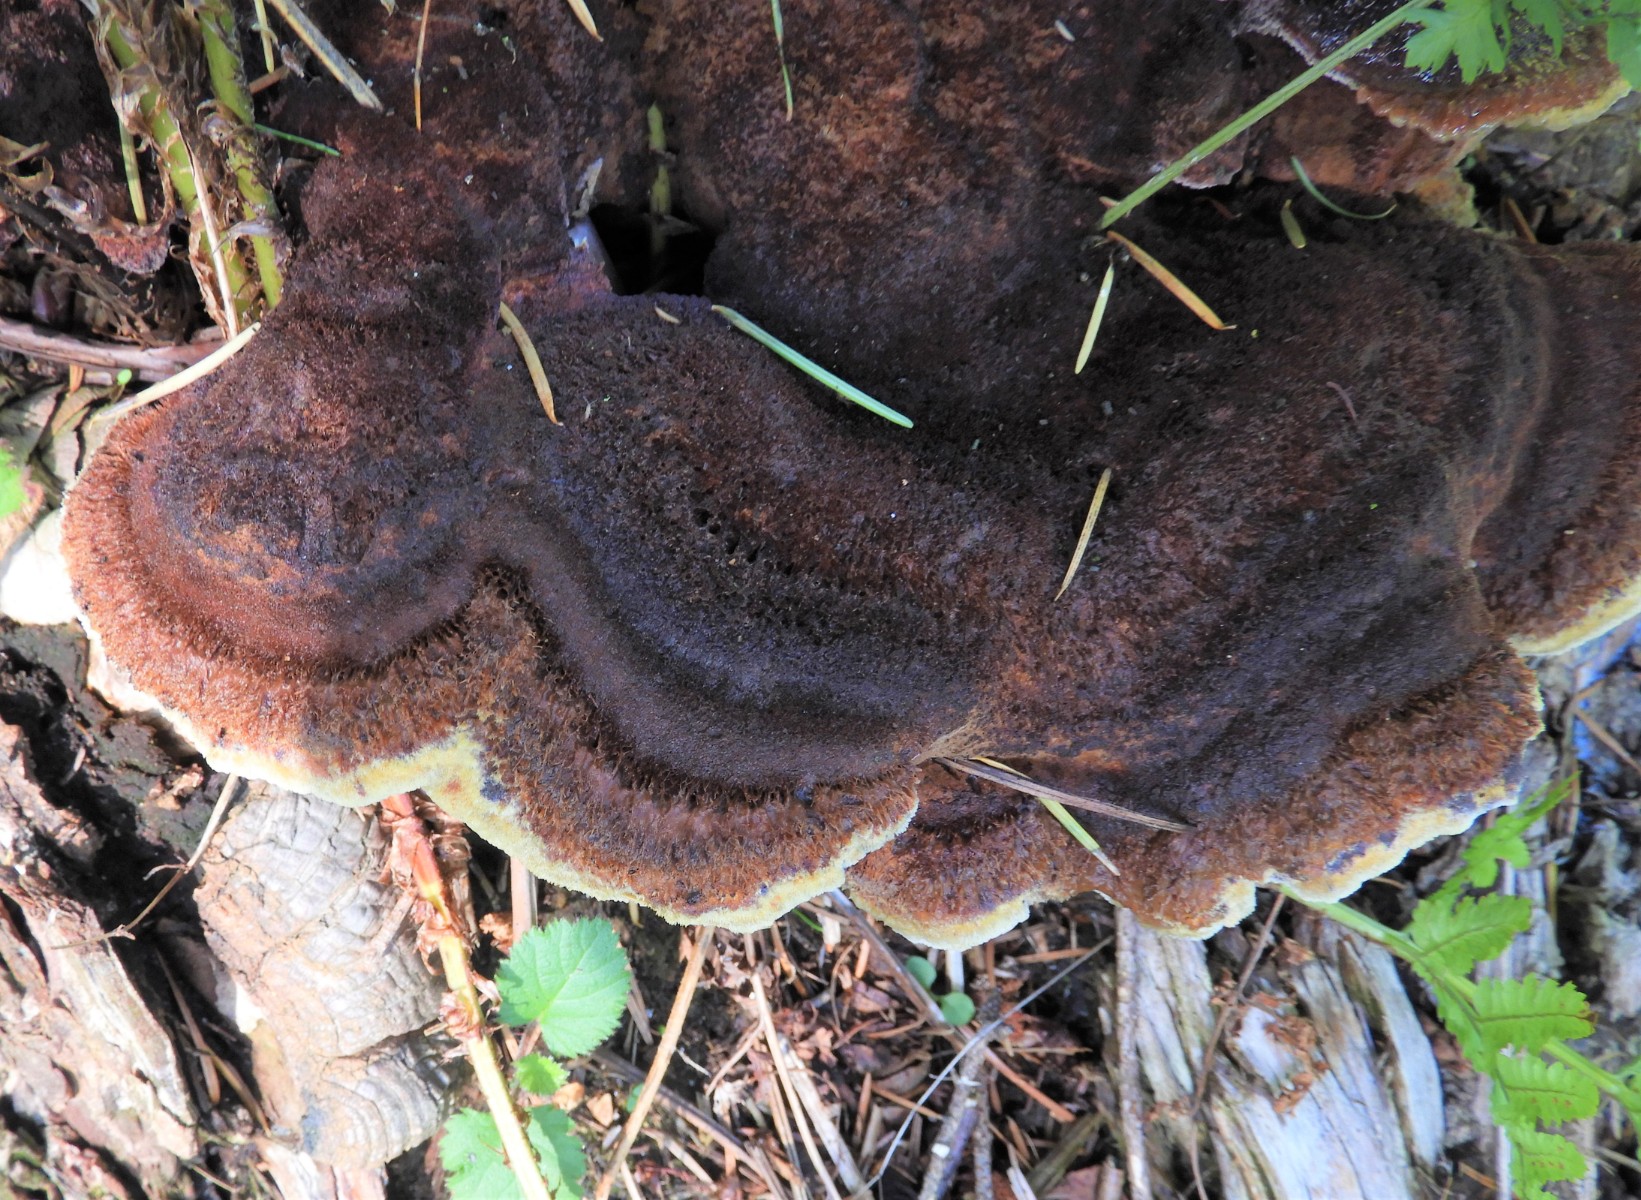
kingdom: Fungi
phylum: Basidiomycota
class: Agaricomycetes
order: Polyporales
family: Ischnodermataceae
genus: Ischnoderma
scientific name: Ischnoderma benzoinum
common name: gran-tjæreporesvamp
